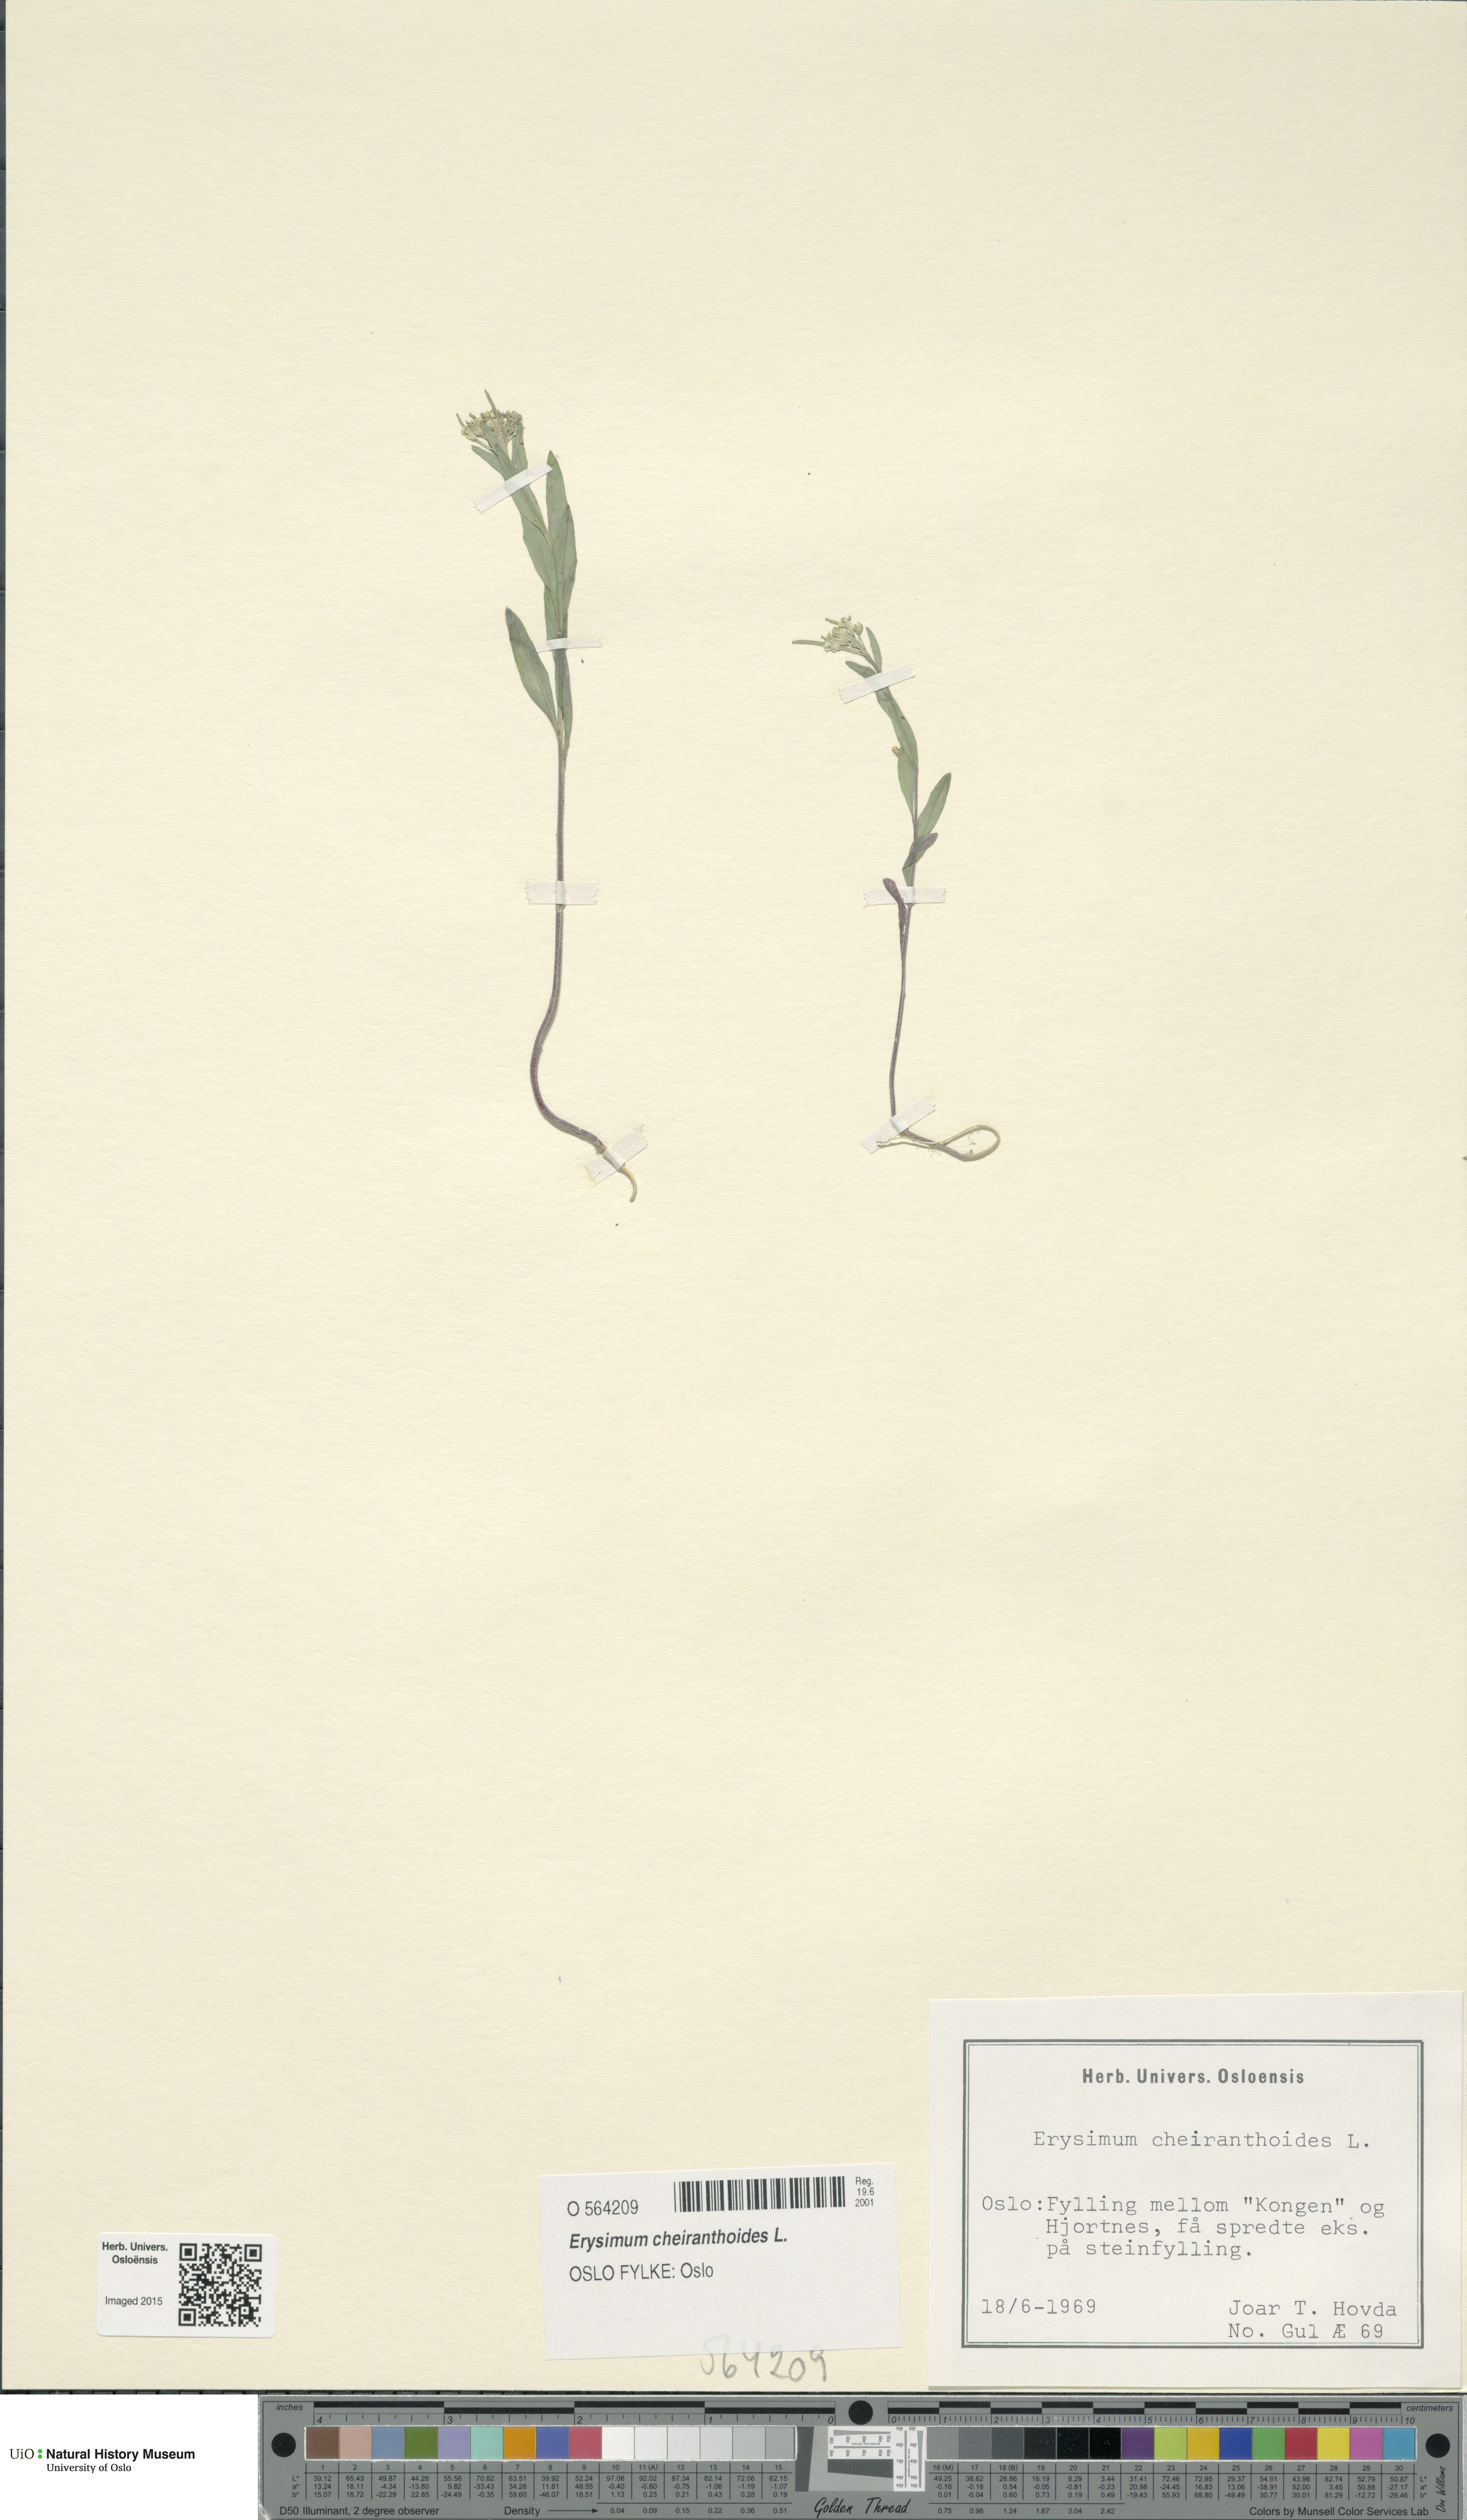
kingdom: Plantae
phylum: Tracheophyta
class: Magnoliopsida
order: Brassicales
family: Brassicaceae
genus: Erysimum
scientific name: Erysimum cheiranthoides
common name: Treacle mustard
